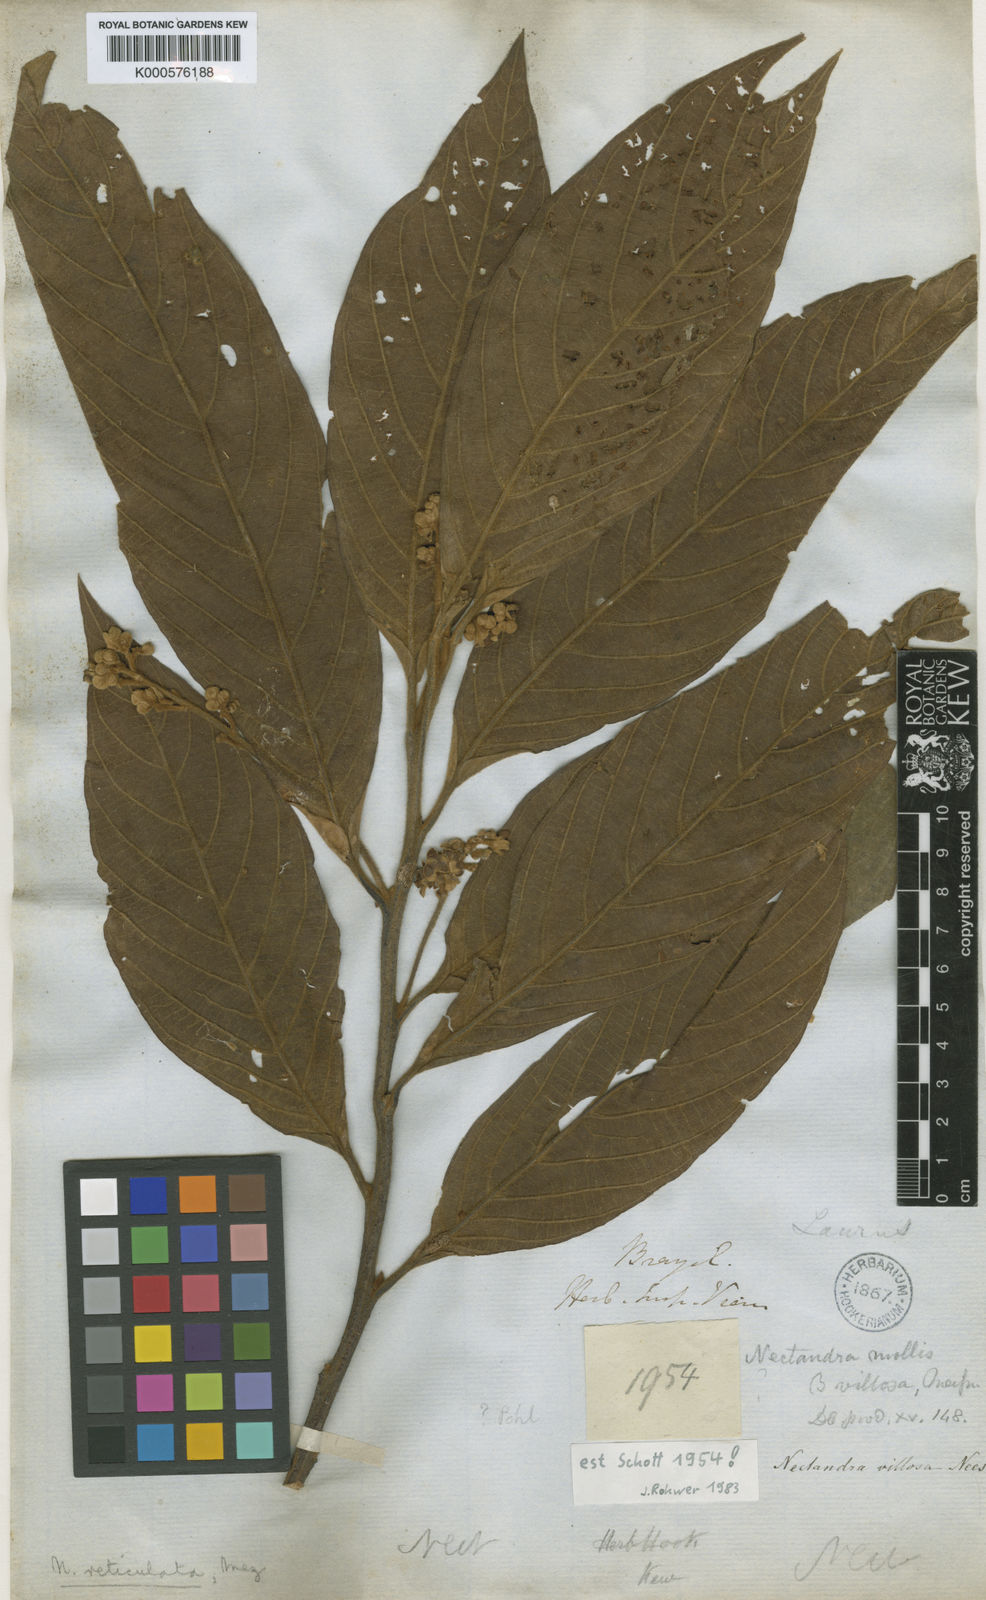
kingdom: Plantae
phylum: Tracheophyta
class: Magnoliopsida
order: Laurales
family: Lauraceae
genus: Nectandra
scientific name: Nectandra villosa
